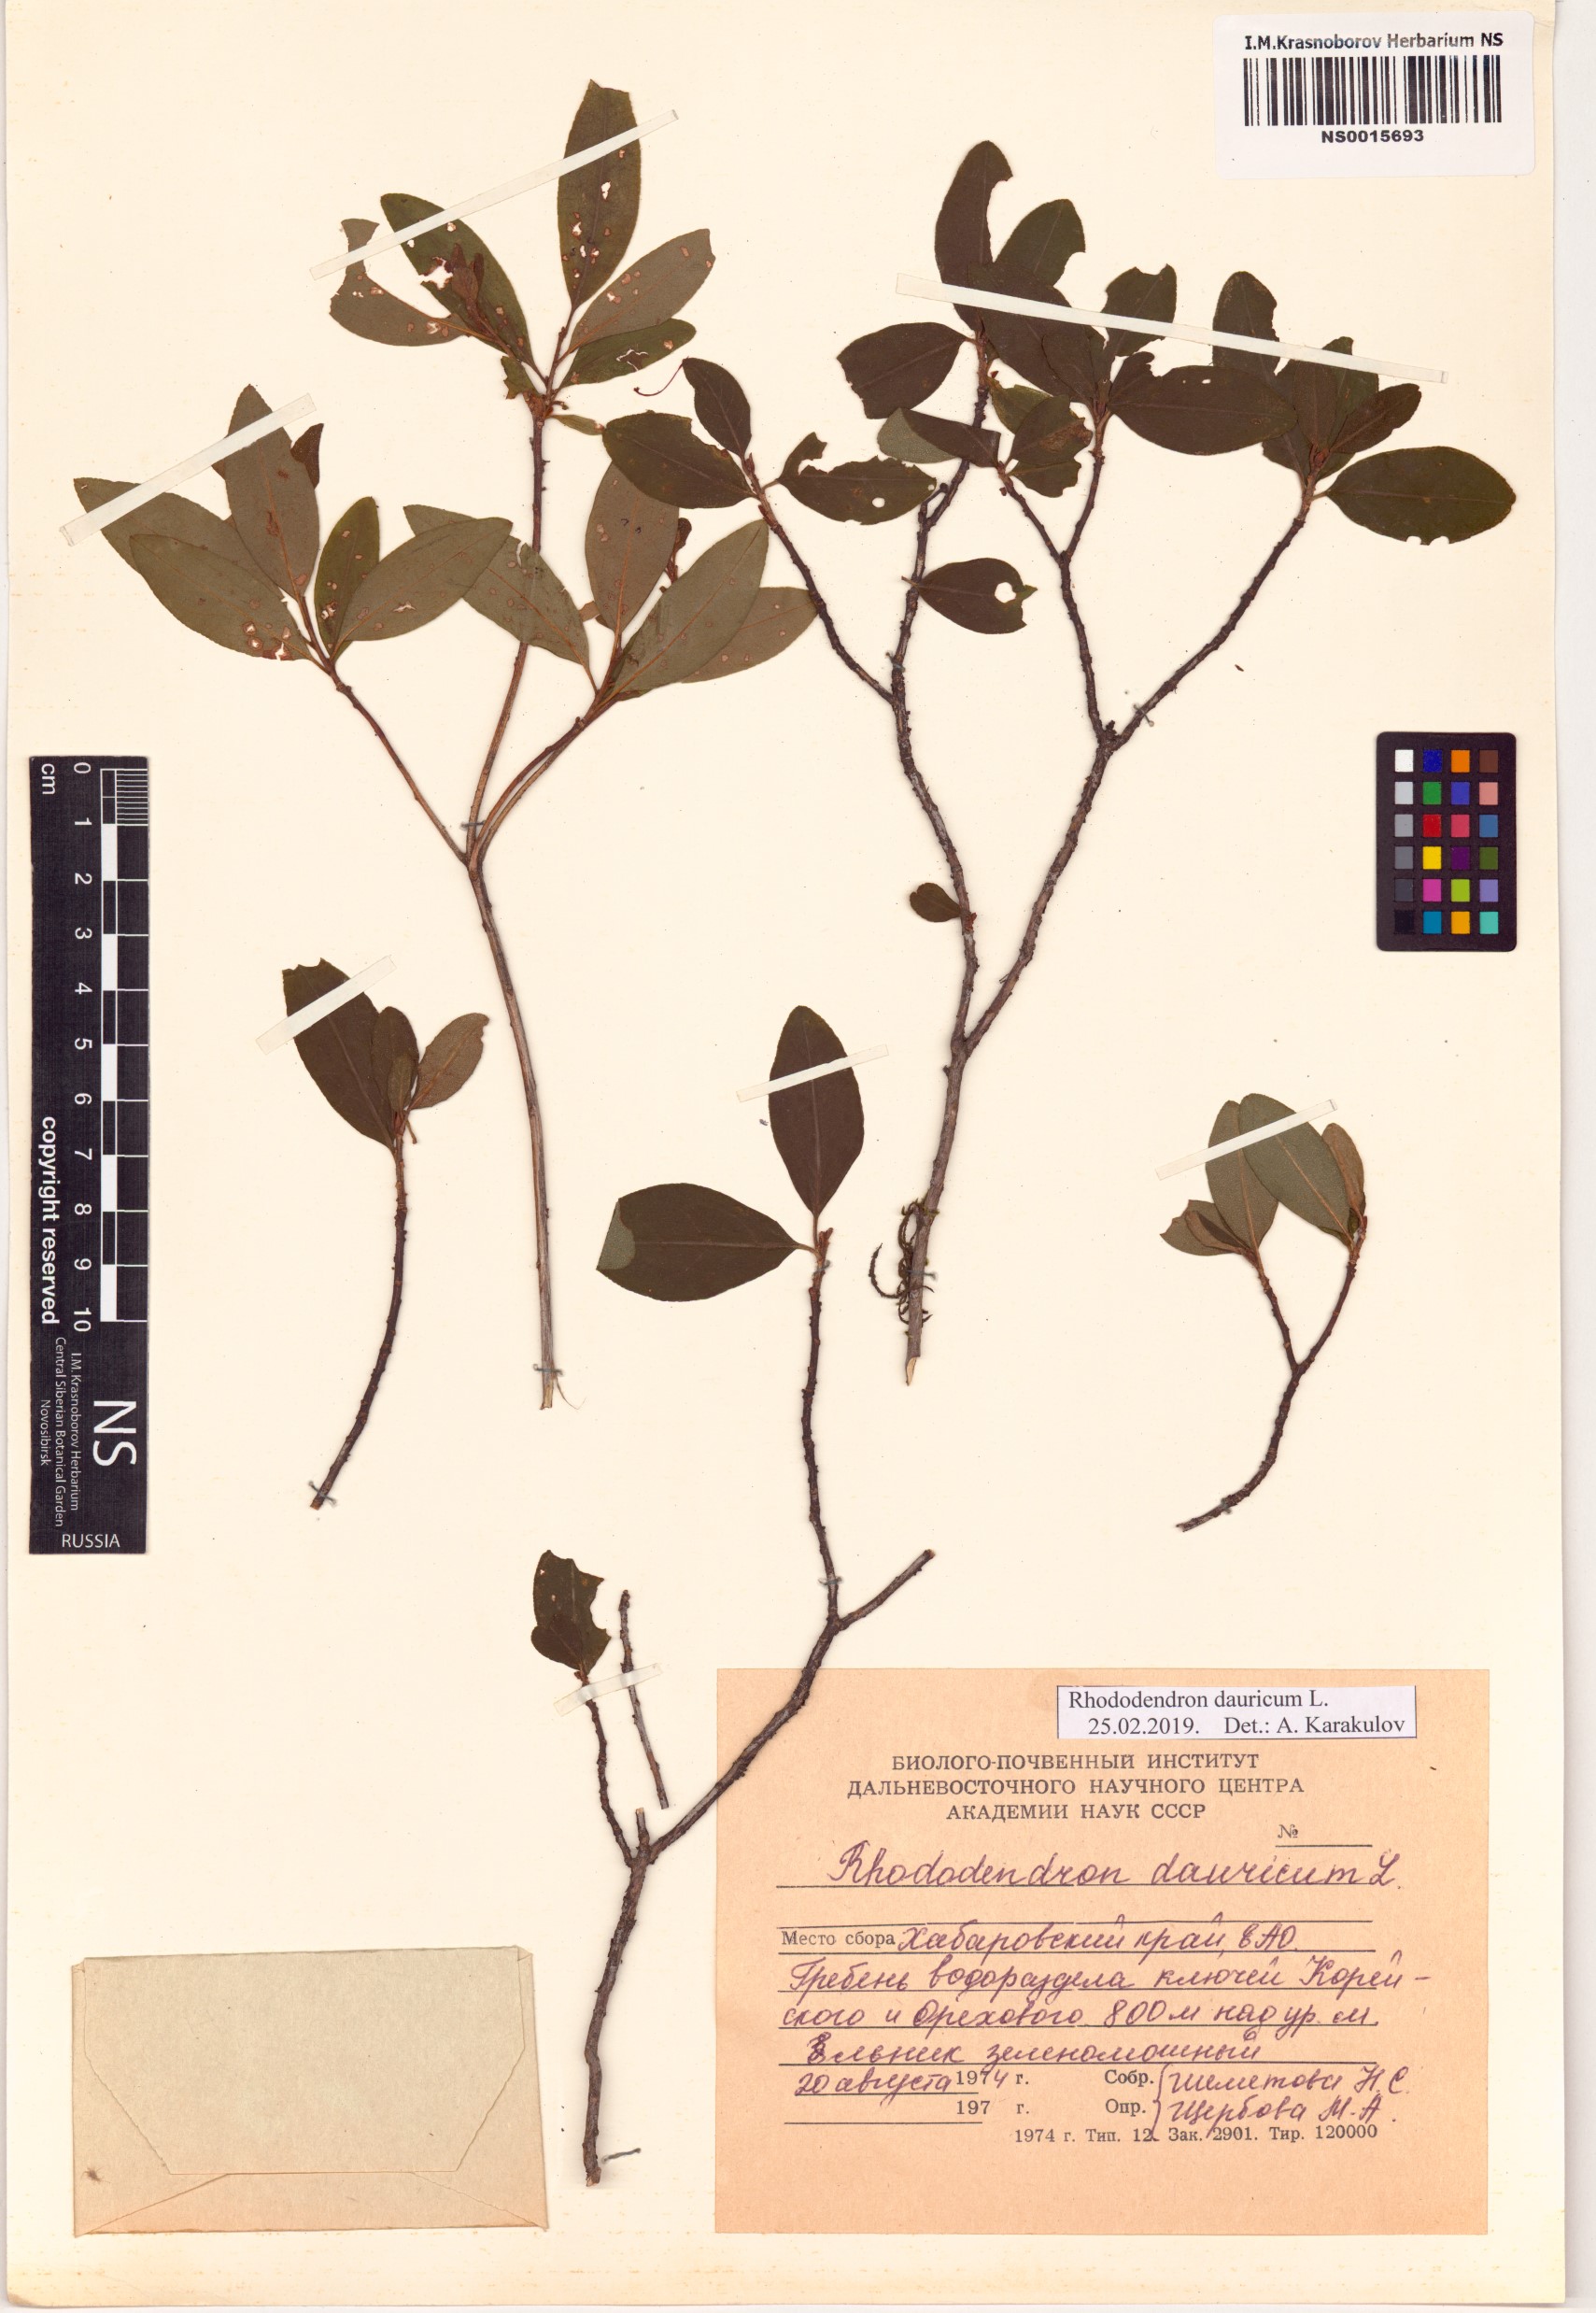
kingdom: Plantae
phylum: Tracheophyta
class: Magnoliopsida
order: Ericales
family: Ericaceae
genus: Rhododendron
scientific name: Rhododendron dauricum
